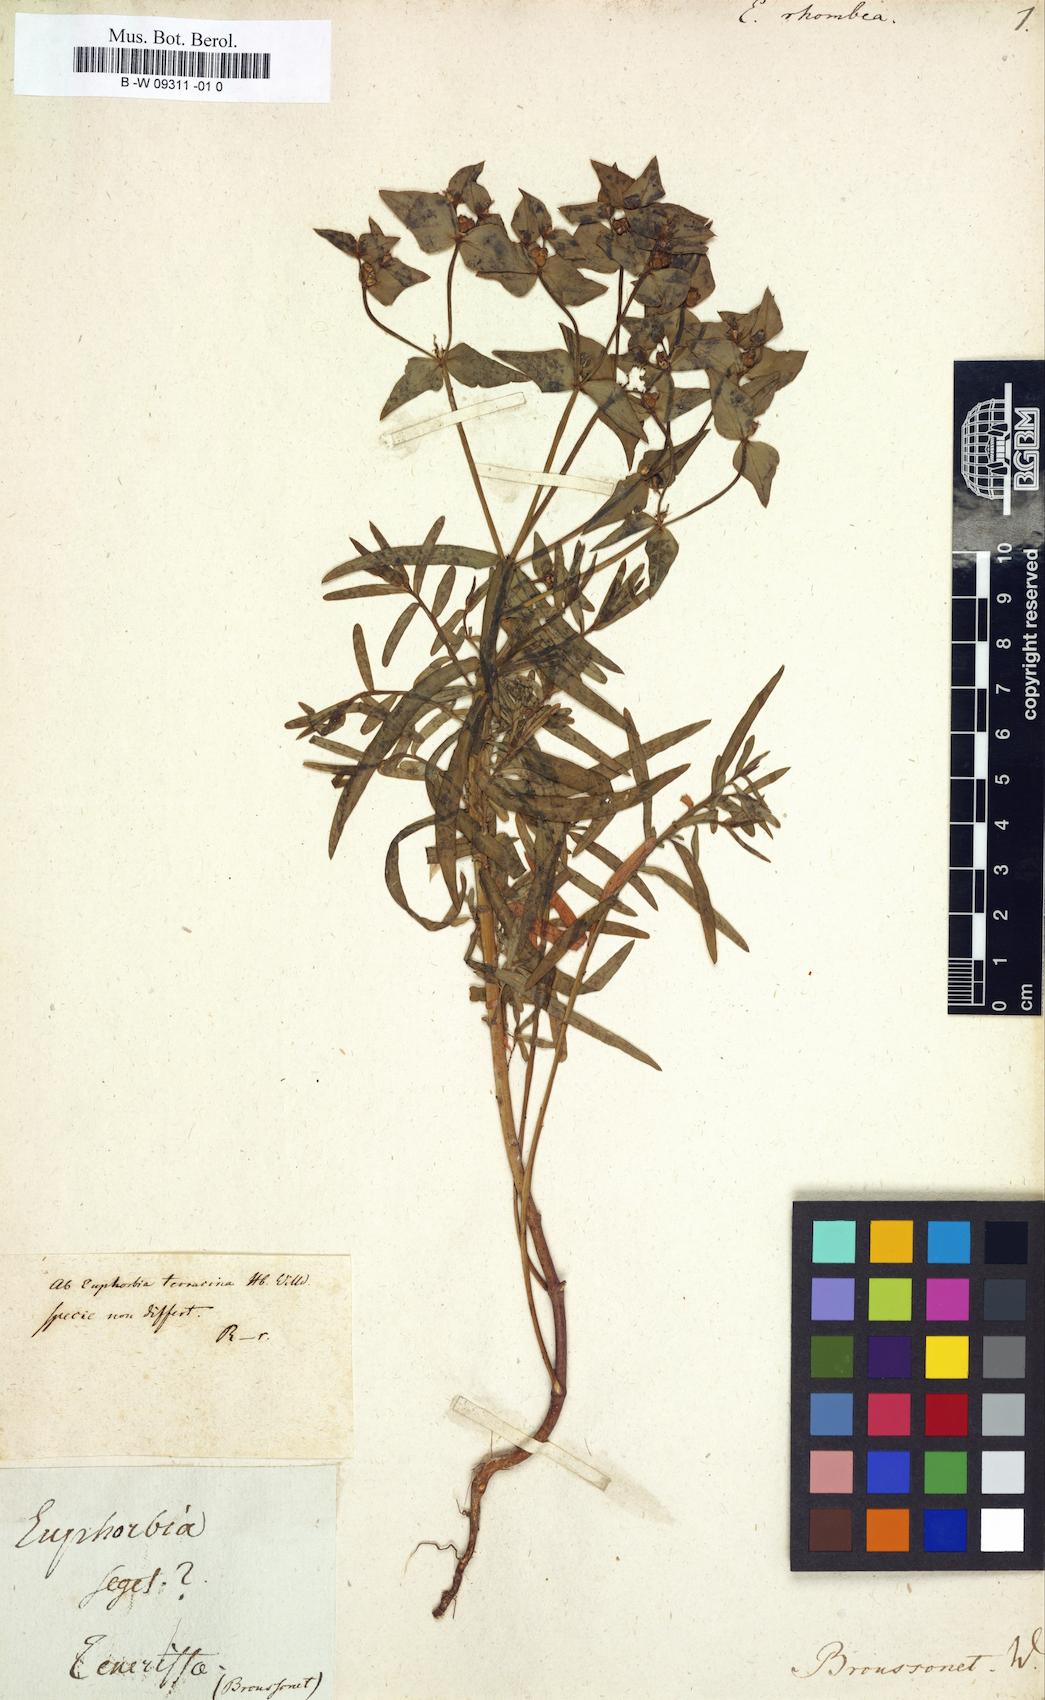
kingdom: Plantae
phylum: Tracheophyta
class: Magnoliopsida
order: Malpighiales
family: Euphorbiaceae
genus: Euphorbia
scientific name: Euphorbia terracina
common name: Geraldton carnation weed
